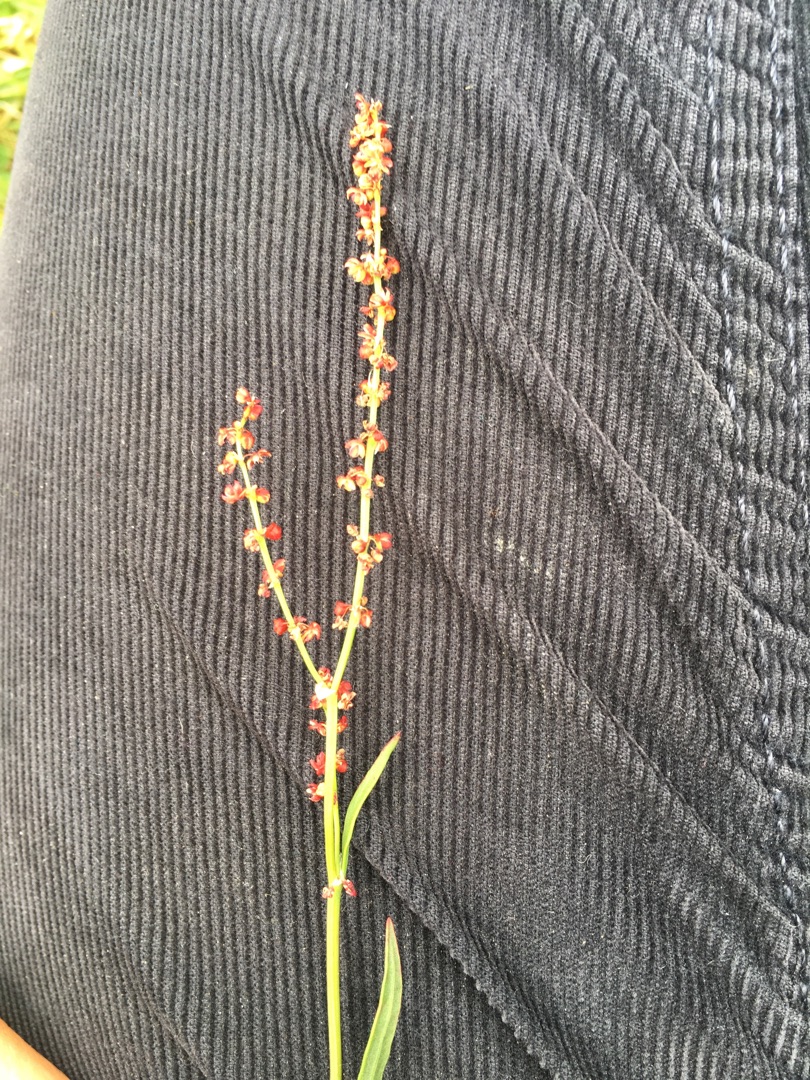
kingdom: Plantae
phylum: Tracheophyta
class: Magnoliopsida
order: Caryophyllales
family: Polygonaceae
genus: Rumex
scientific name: Rumex acetosella
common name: Rødknæ
